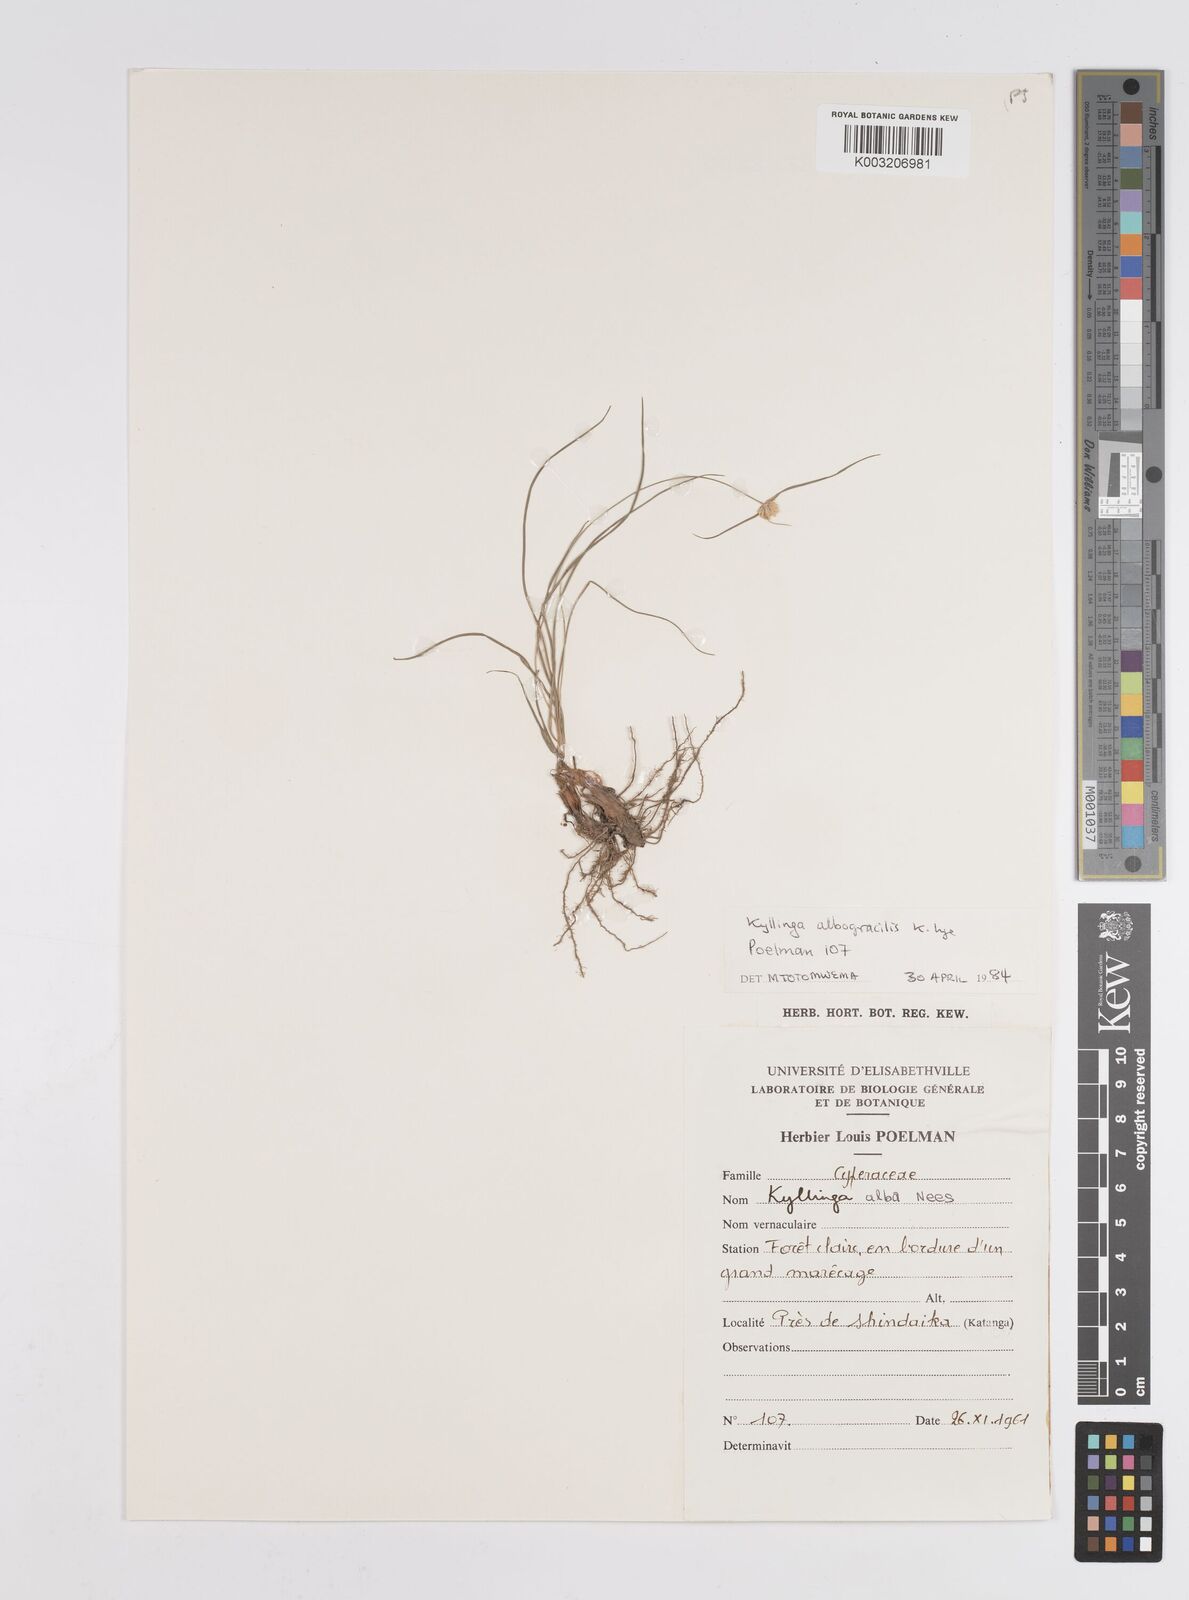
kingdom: Plantae
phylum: Tracheophyta
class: Liliopsida
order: Poales
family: Cyperaceae
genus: Cyperus
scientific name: Cyperus albogracilis
